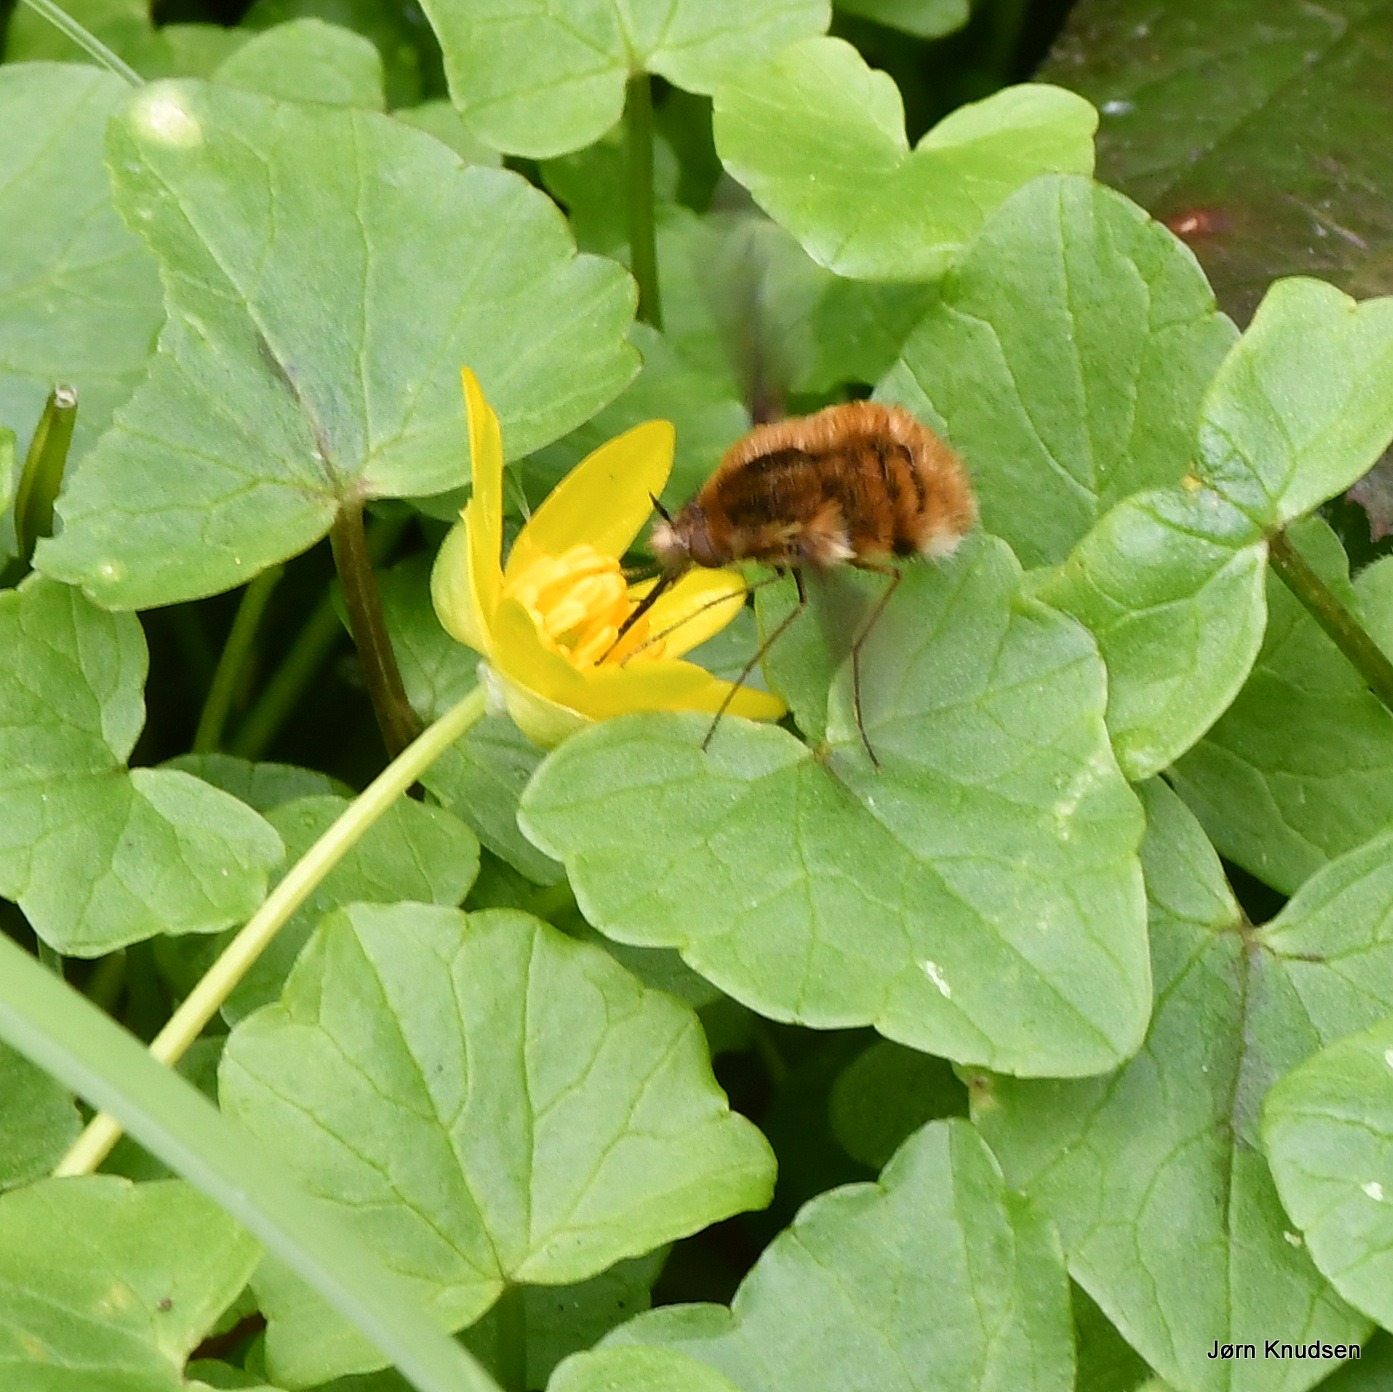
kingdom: Animalia
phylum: Arthropoda
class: Insecta
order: Diptera
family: Bombyliidae
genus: Bombylius
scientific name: Bombylius major
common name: Stor humleflue
